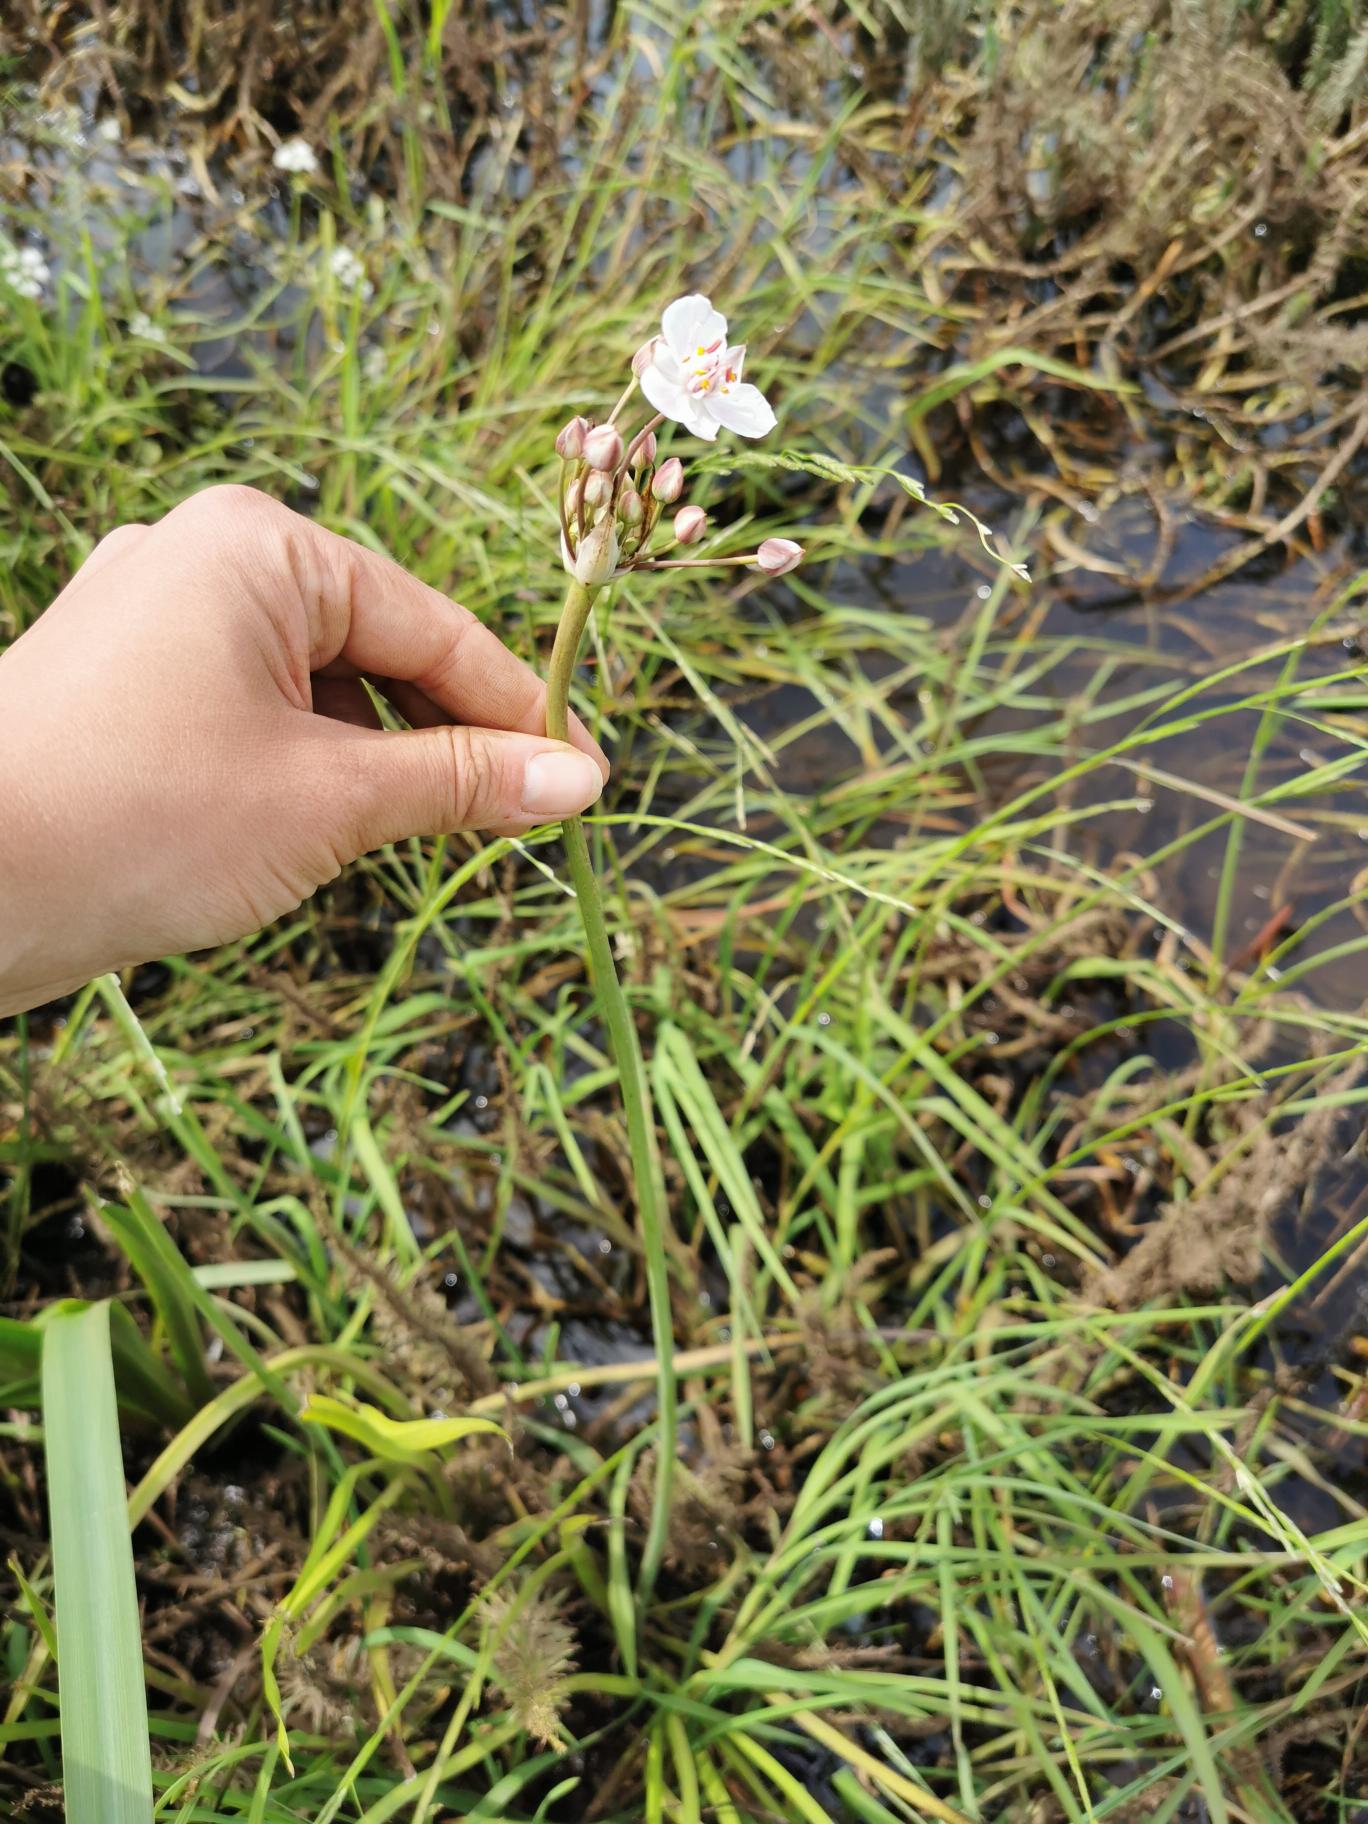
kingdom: Plantae
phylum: Tracheophyta
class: Liliopsida
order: Alismatales
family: Butomaceae
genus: Butomus
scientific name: Butomus umbellatus
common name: Brudelys
